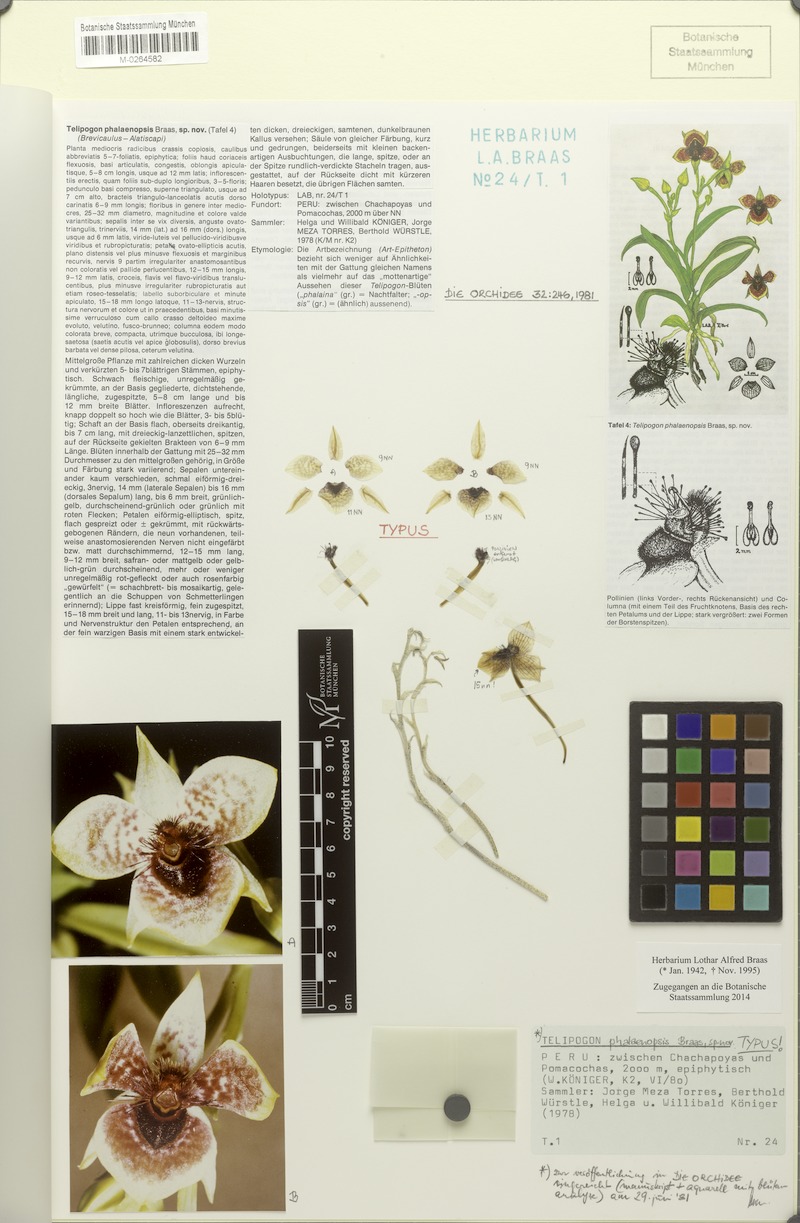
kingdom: Plantae
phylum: Tracheophyta
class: Liliopsida
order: Asparagales
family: Orchidaceae
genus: Telipogon
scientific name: Telipogon phalaenopsis
